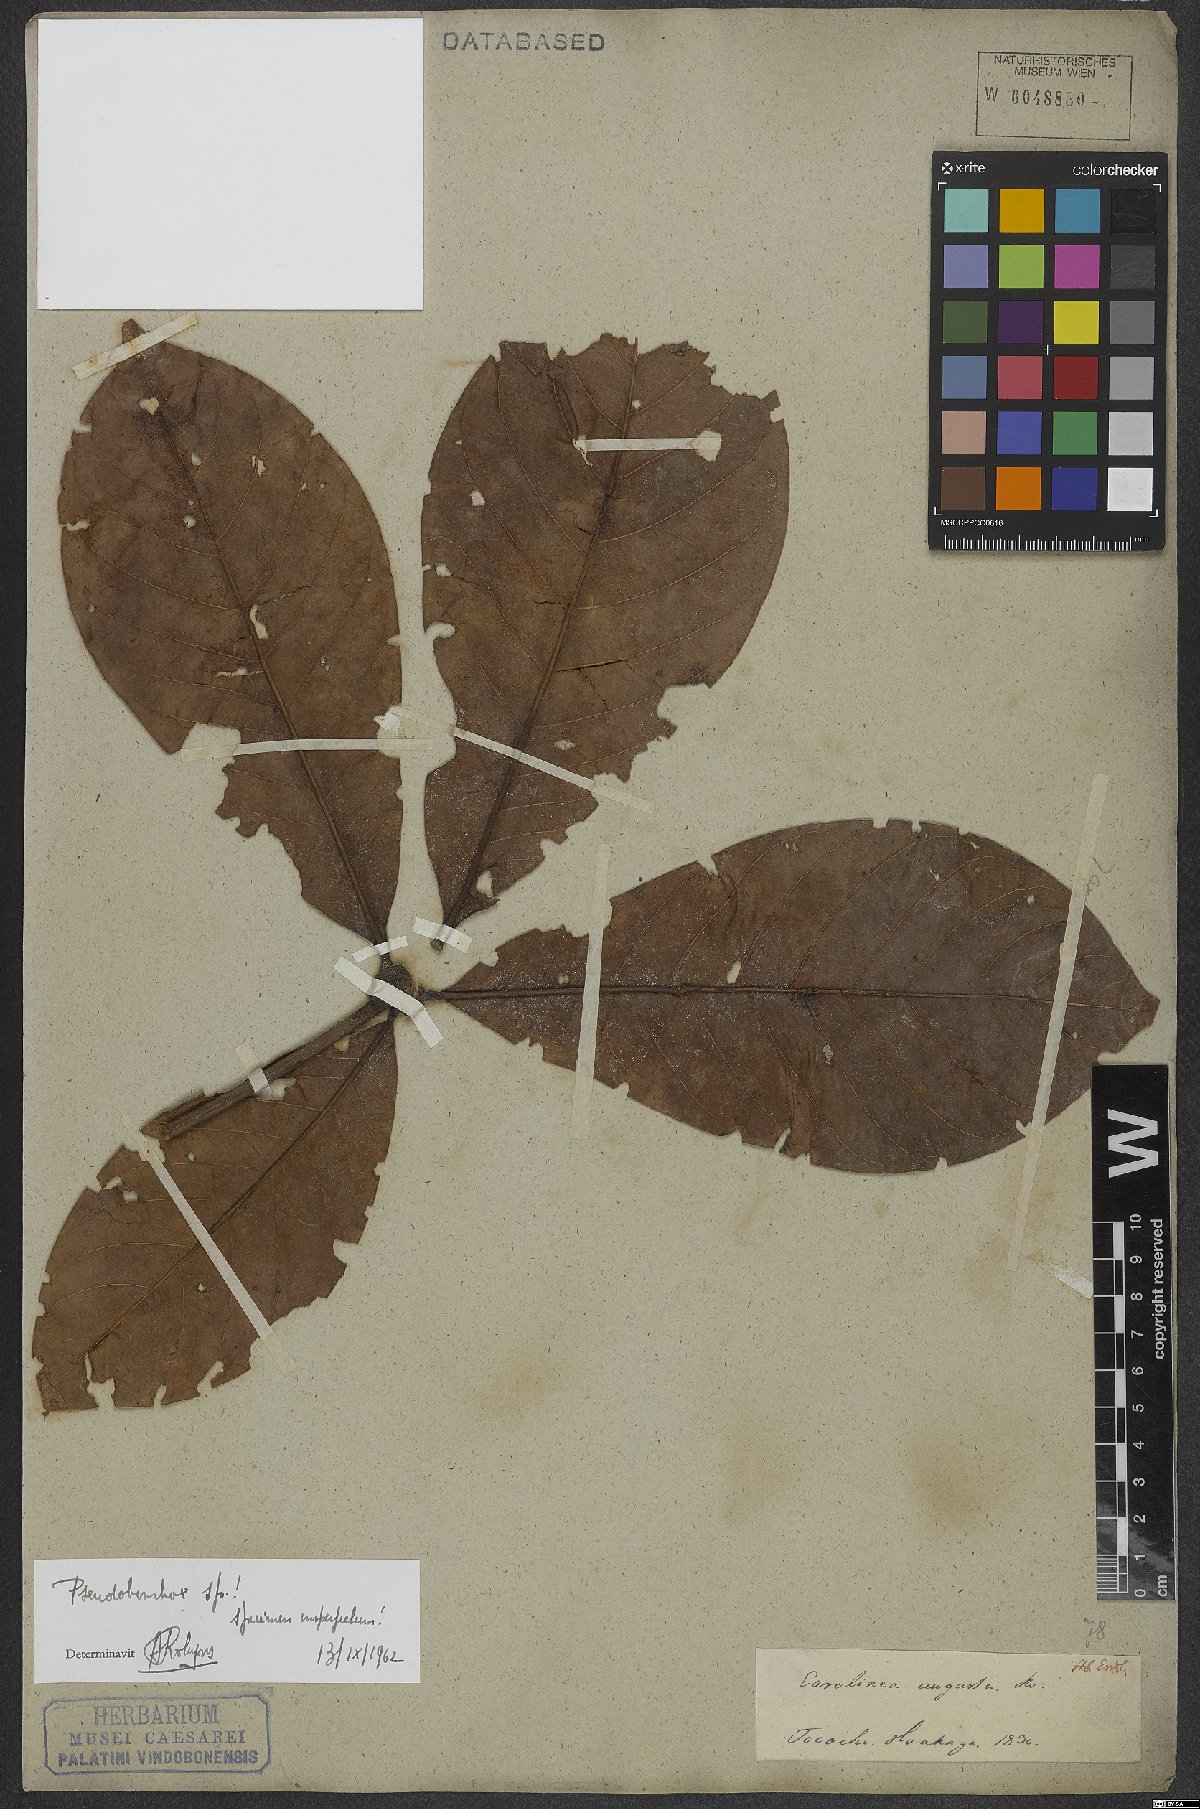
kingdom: Plantae
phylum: Tracheophyta
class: Magnoliopsida
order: Malvales
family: Malvaceae
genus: Pseudobombax
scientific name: Pseudobombax
